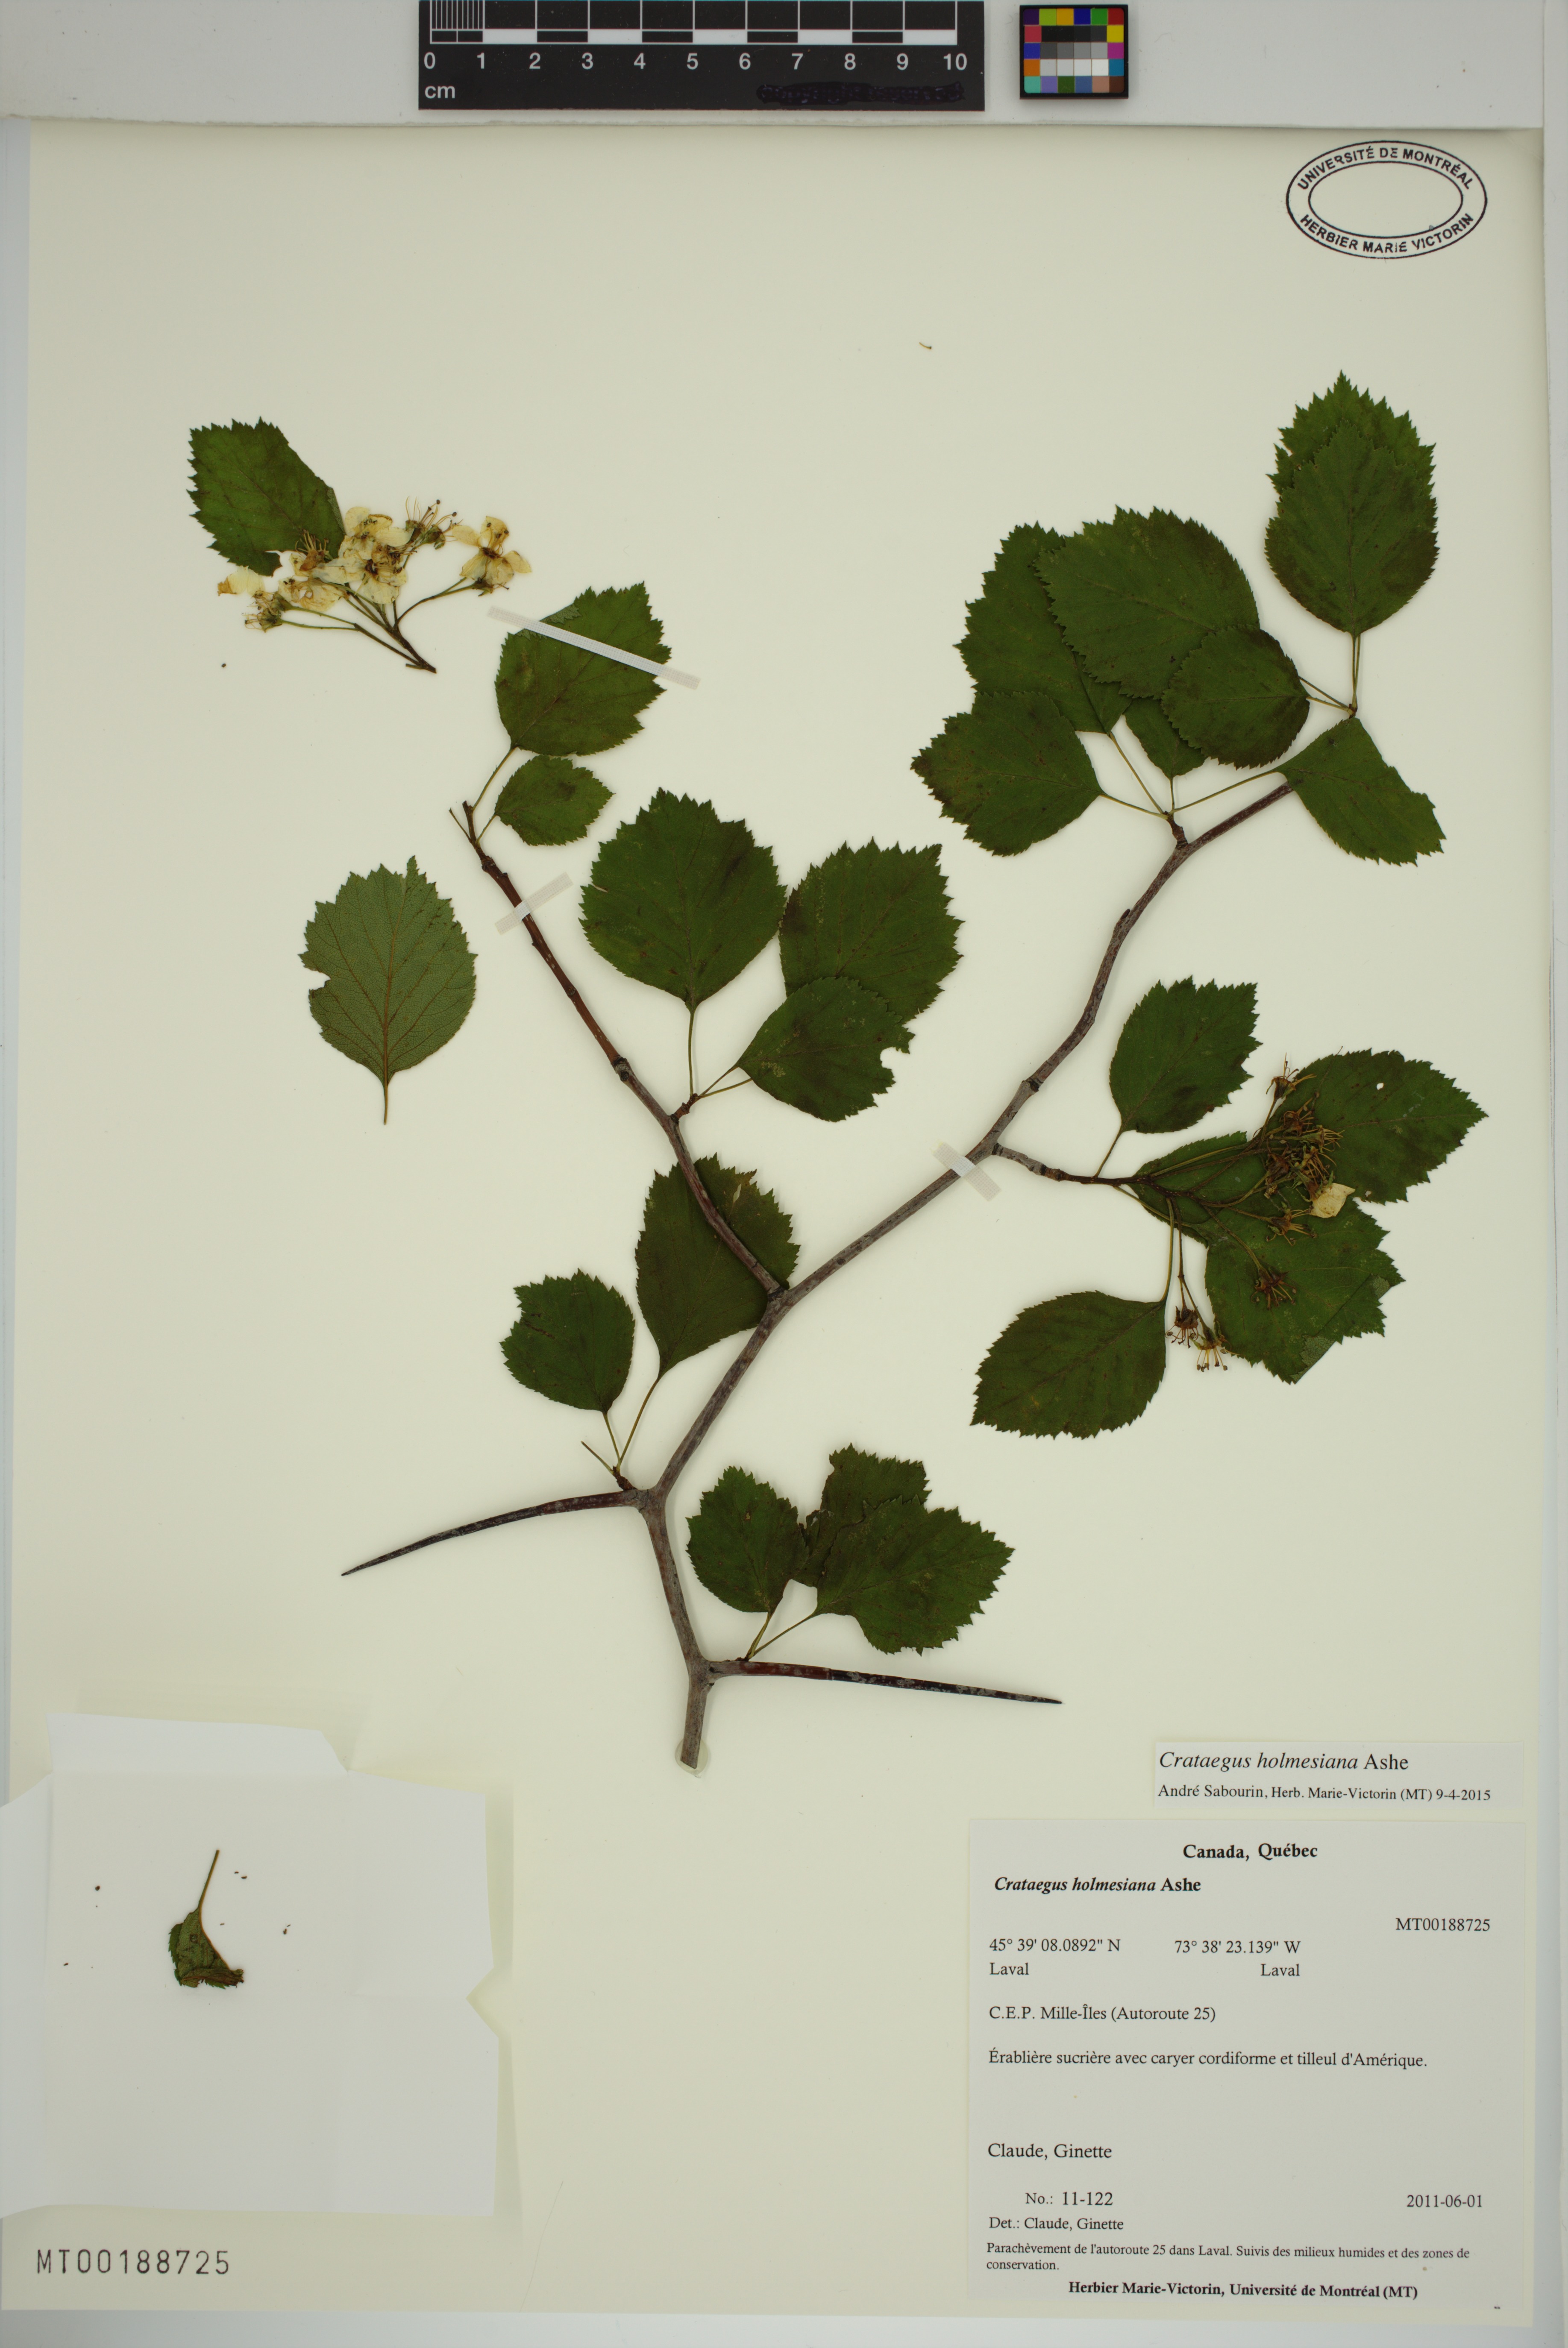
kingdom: Plantae
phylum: Tracheophyta
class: Magnoliopsida
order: Rosales
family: Rosaceae
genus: Crataegus
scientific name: Crataegus holmesiana
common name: Holmes' hawthorn
